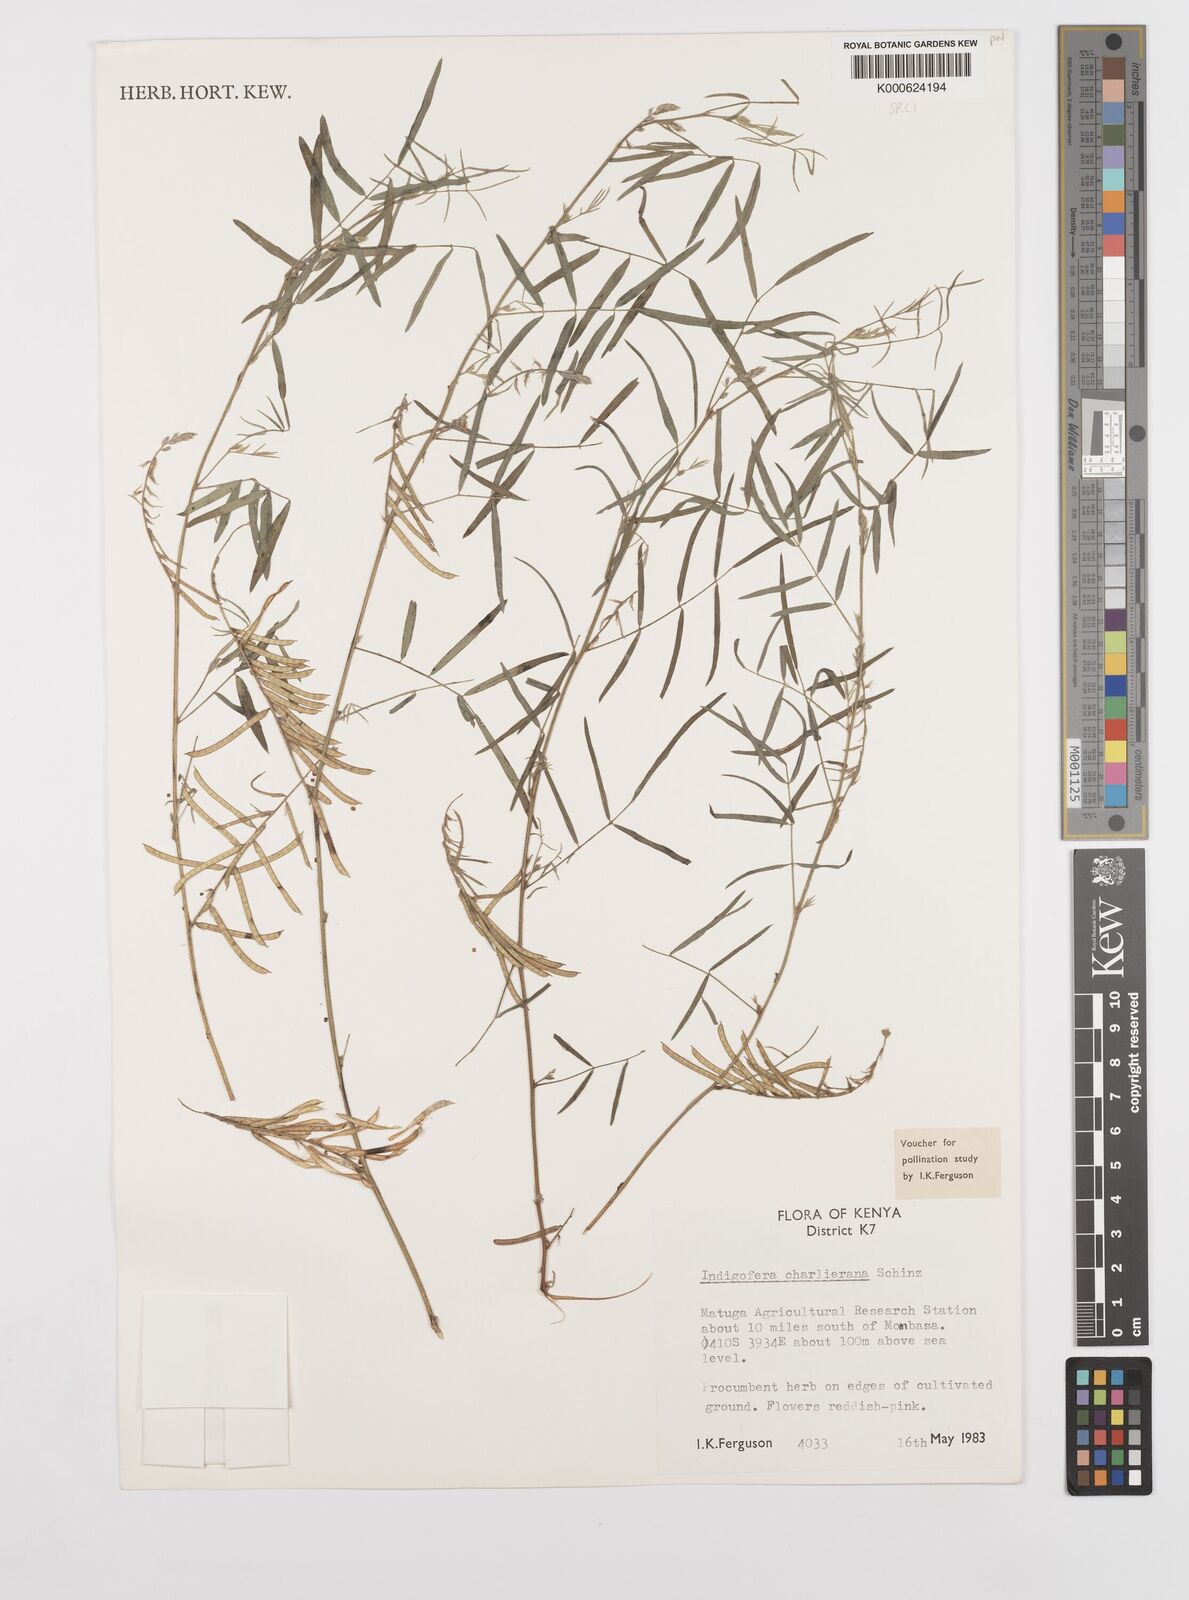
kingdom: Plantae
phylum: Tracheophyta
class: Magnoliopsida
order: Fabales
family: Fabaceae
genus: Indigofera
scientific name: Indigofera charlieriana
